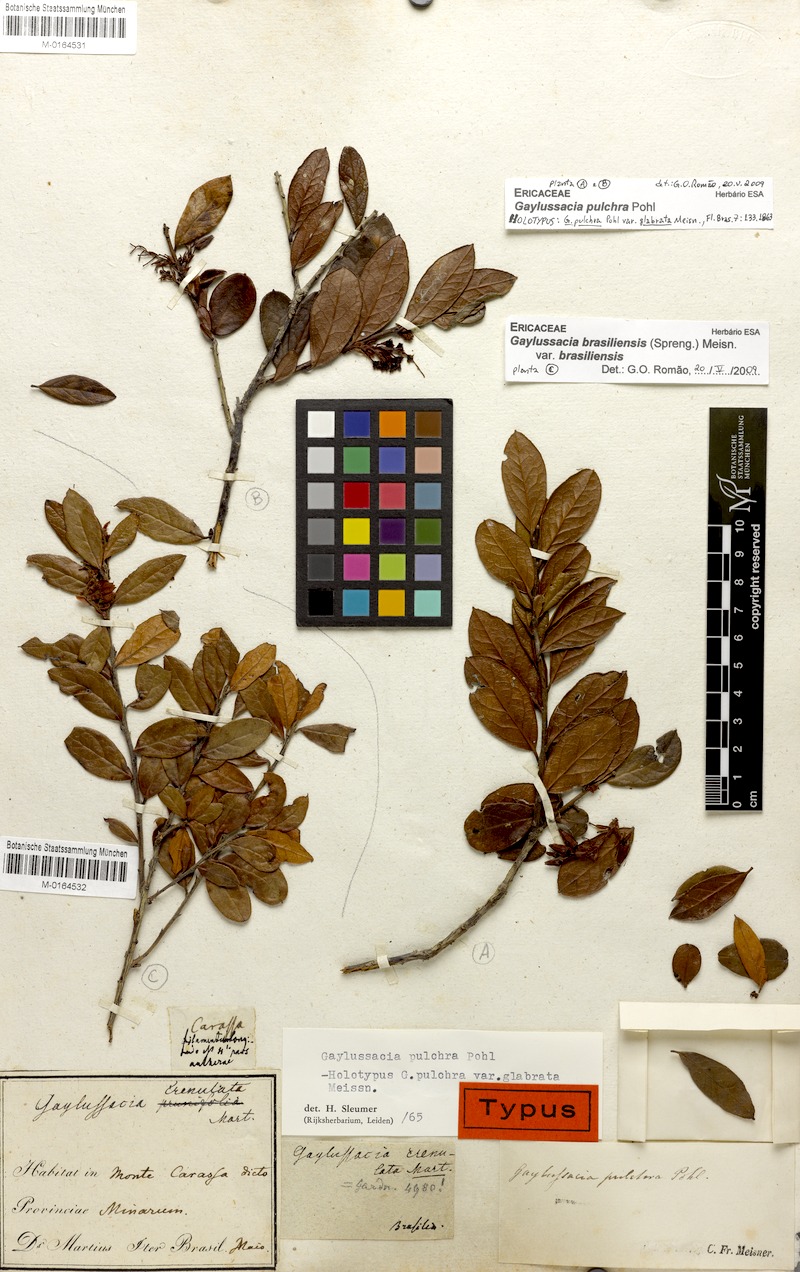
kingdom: Plantae
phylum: Tracheophyta
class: Magnoliopsida
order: Ericales
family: Ericaceae
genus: Gaylussacia
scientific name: Gaylussacia brasiliensis
